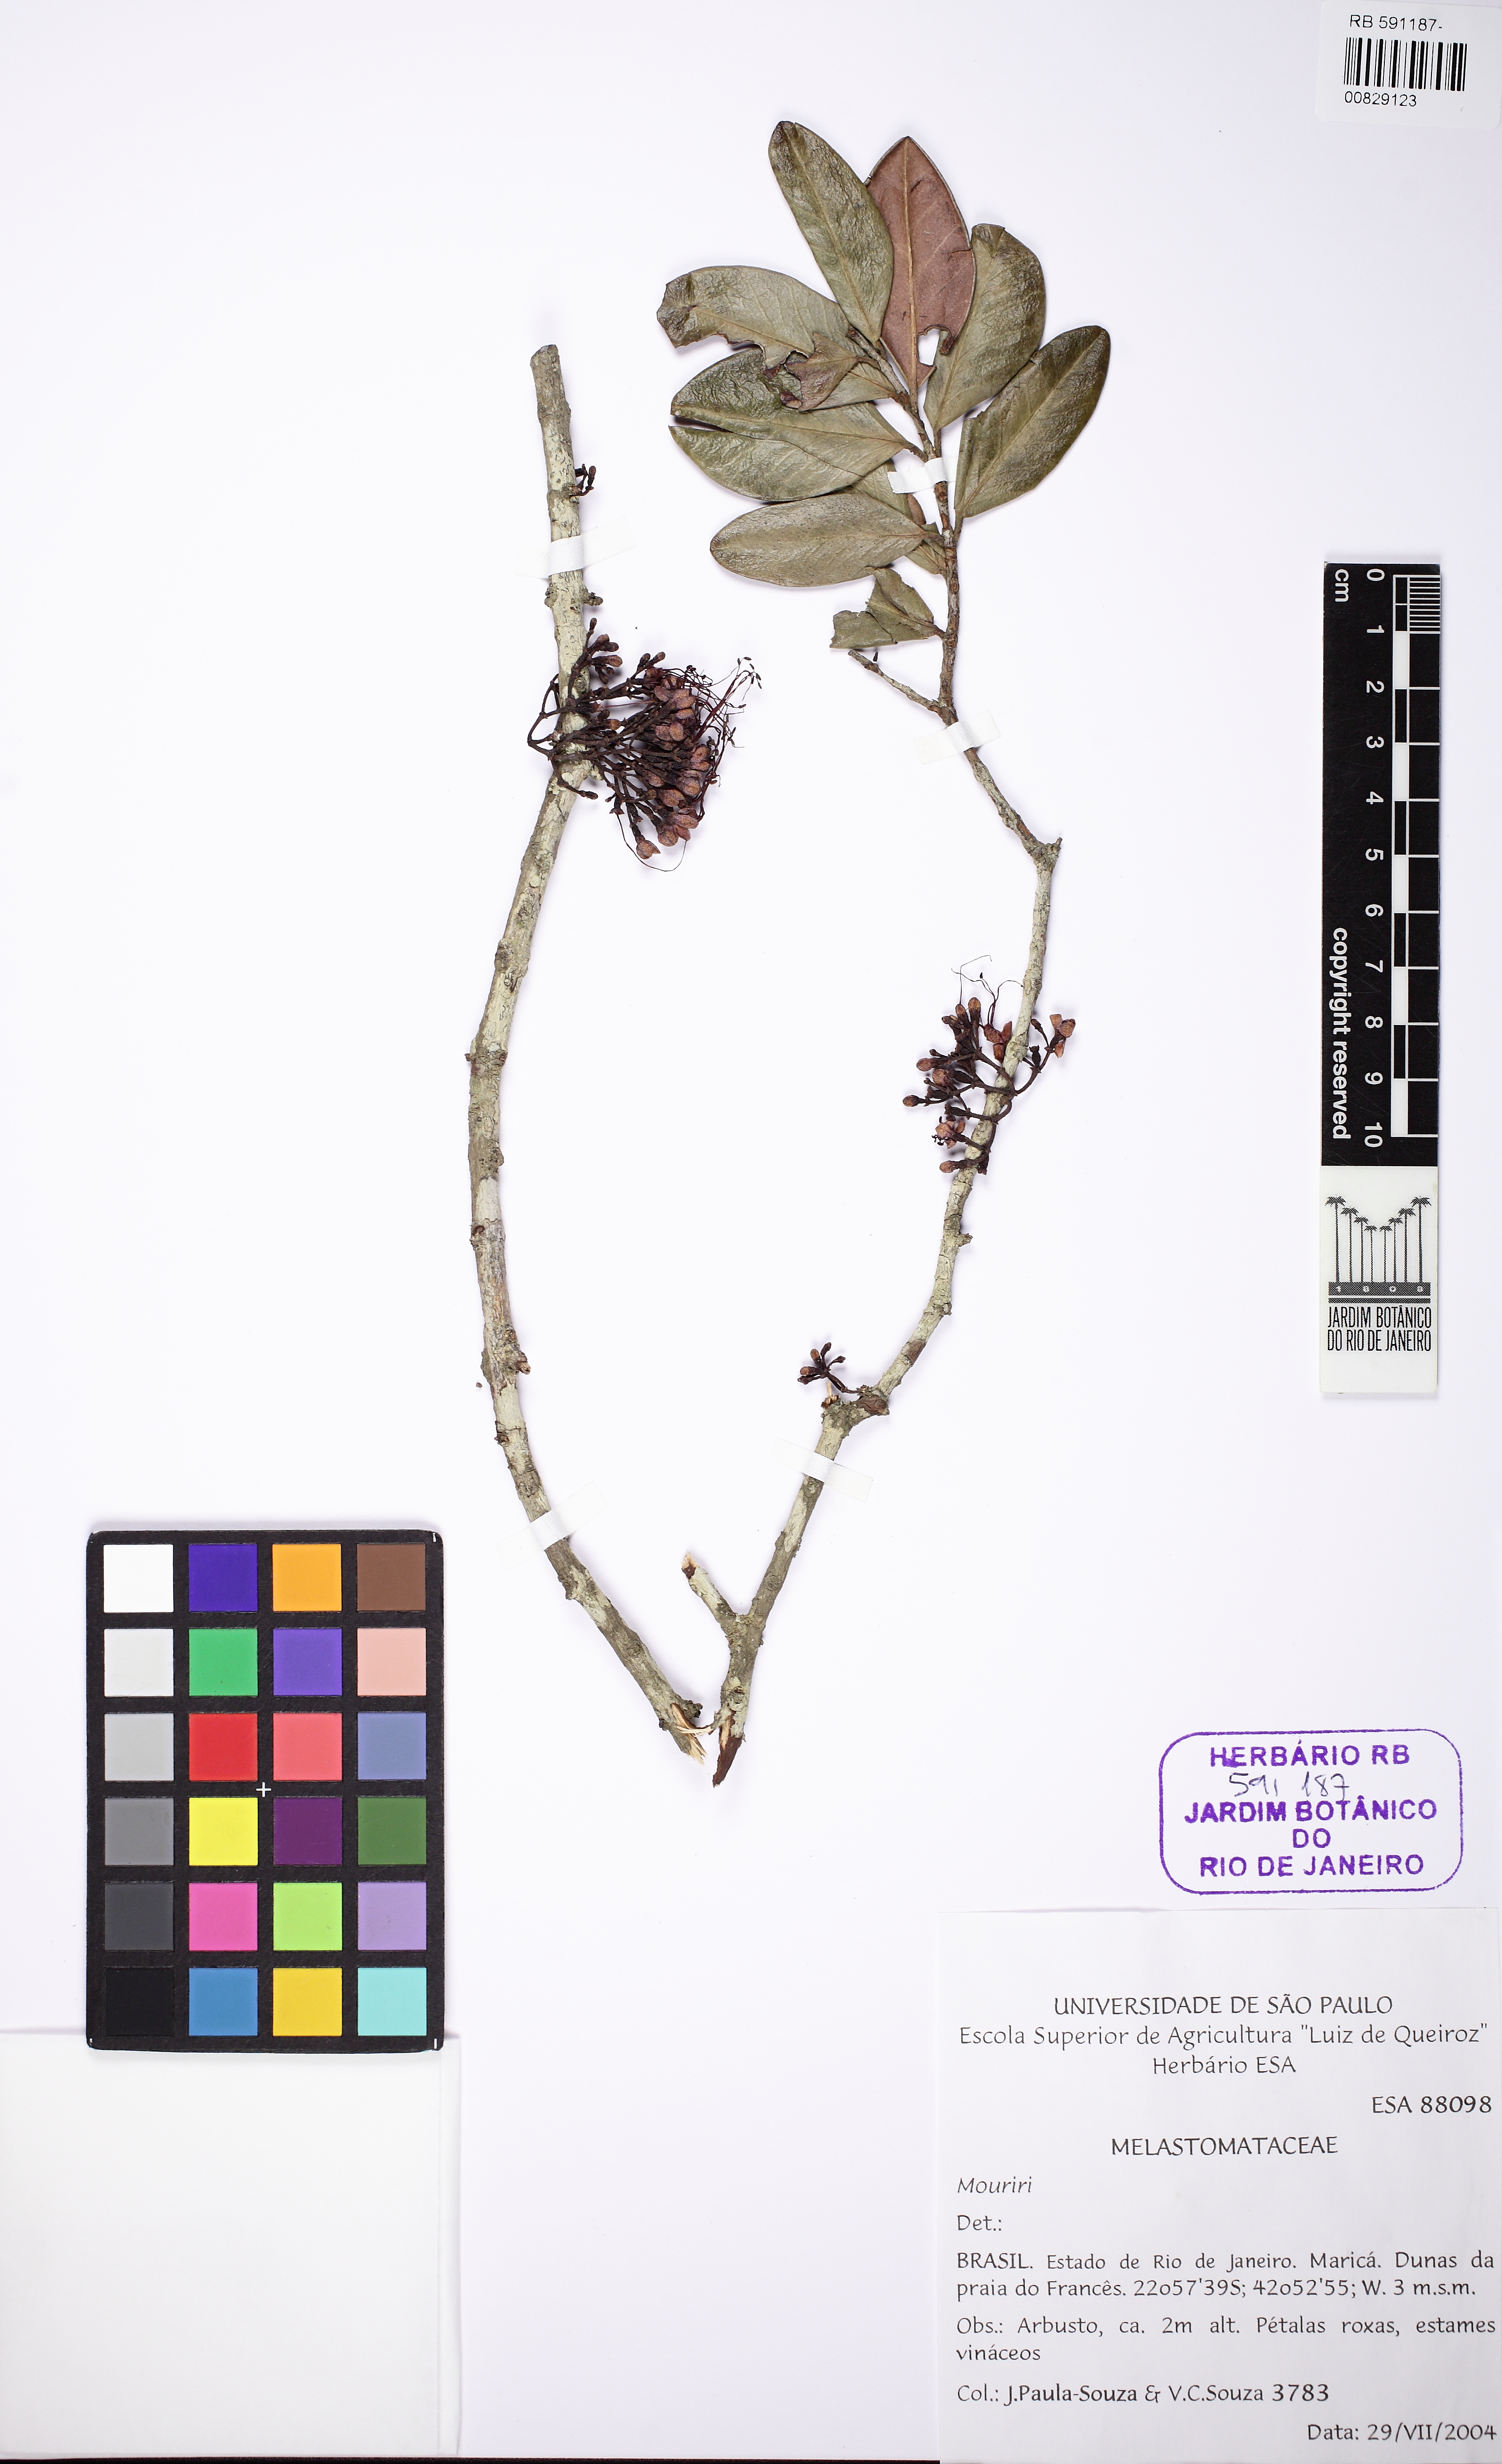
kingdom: Plantae
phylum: Tracheophyta
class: Magnoliopsida
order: Myrtales
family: Myrtaceae
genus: Myrrhinium
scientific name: Myrrhinium atropurpureum
